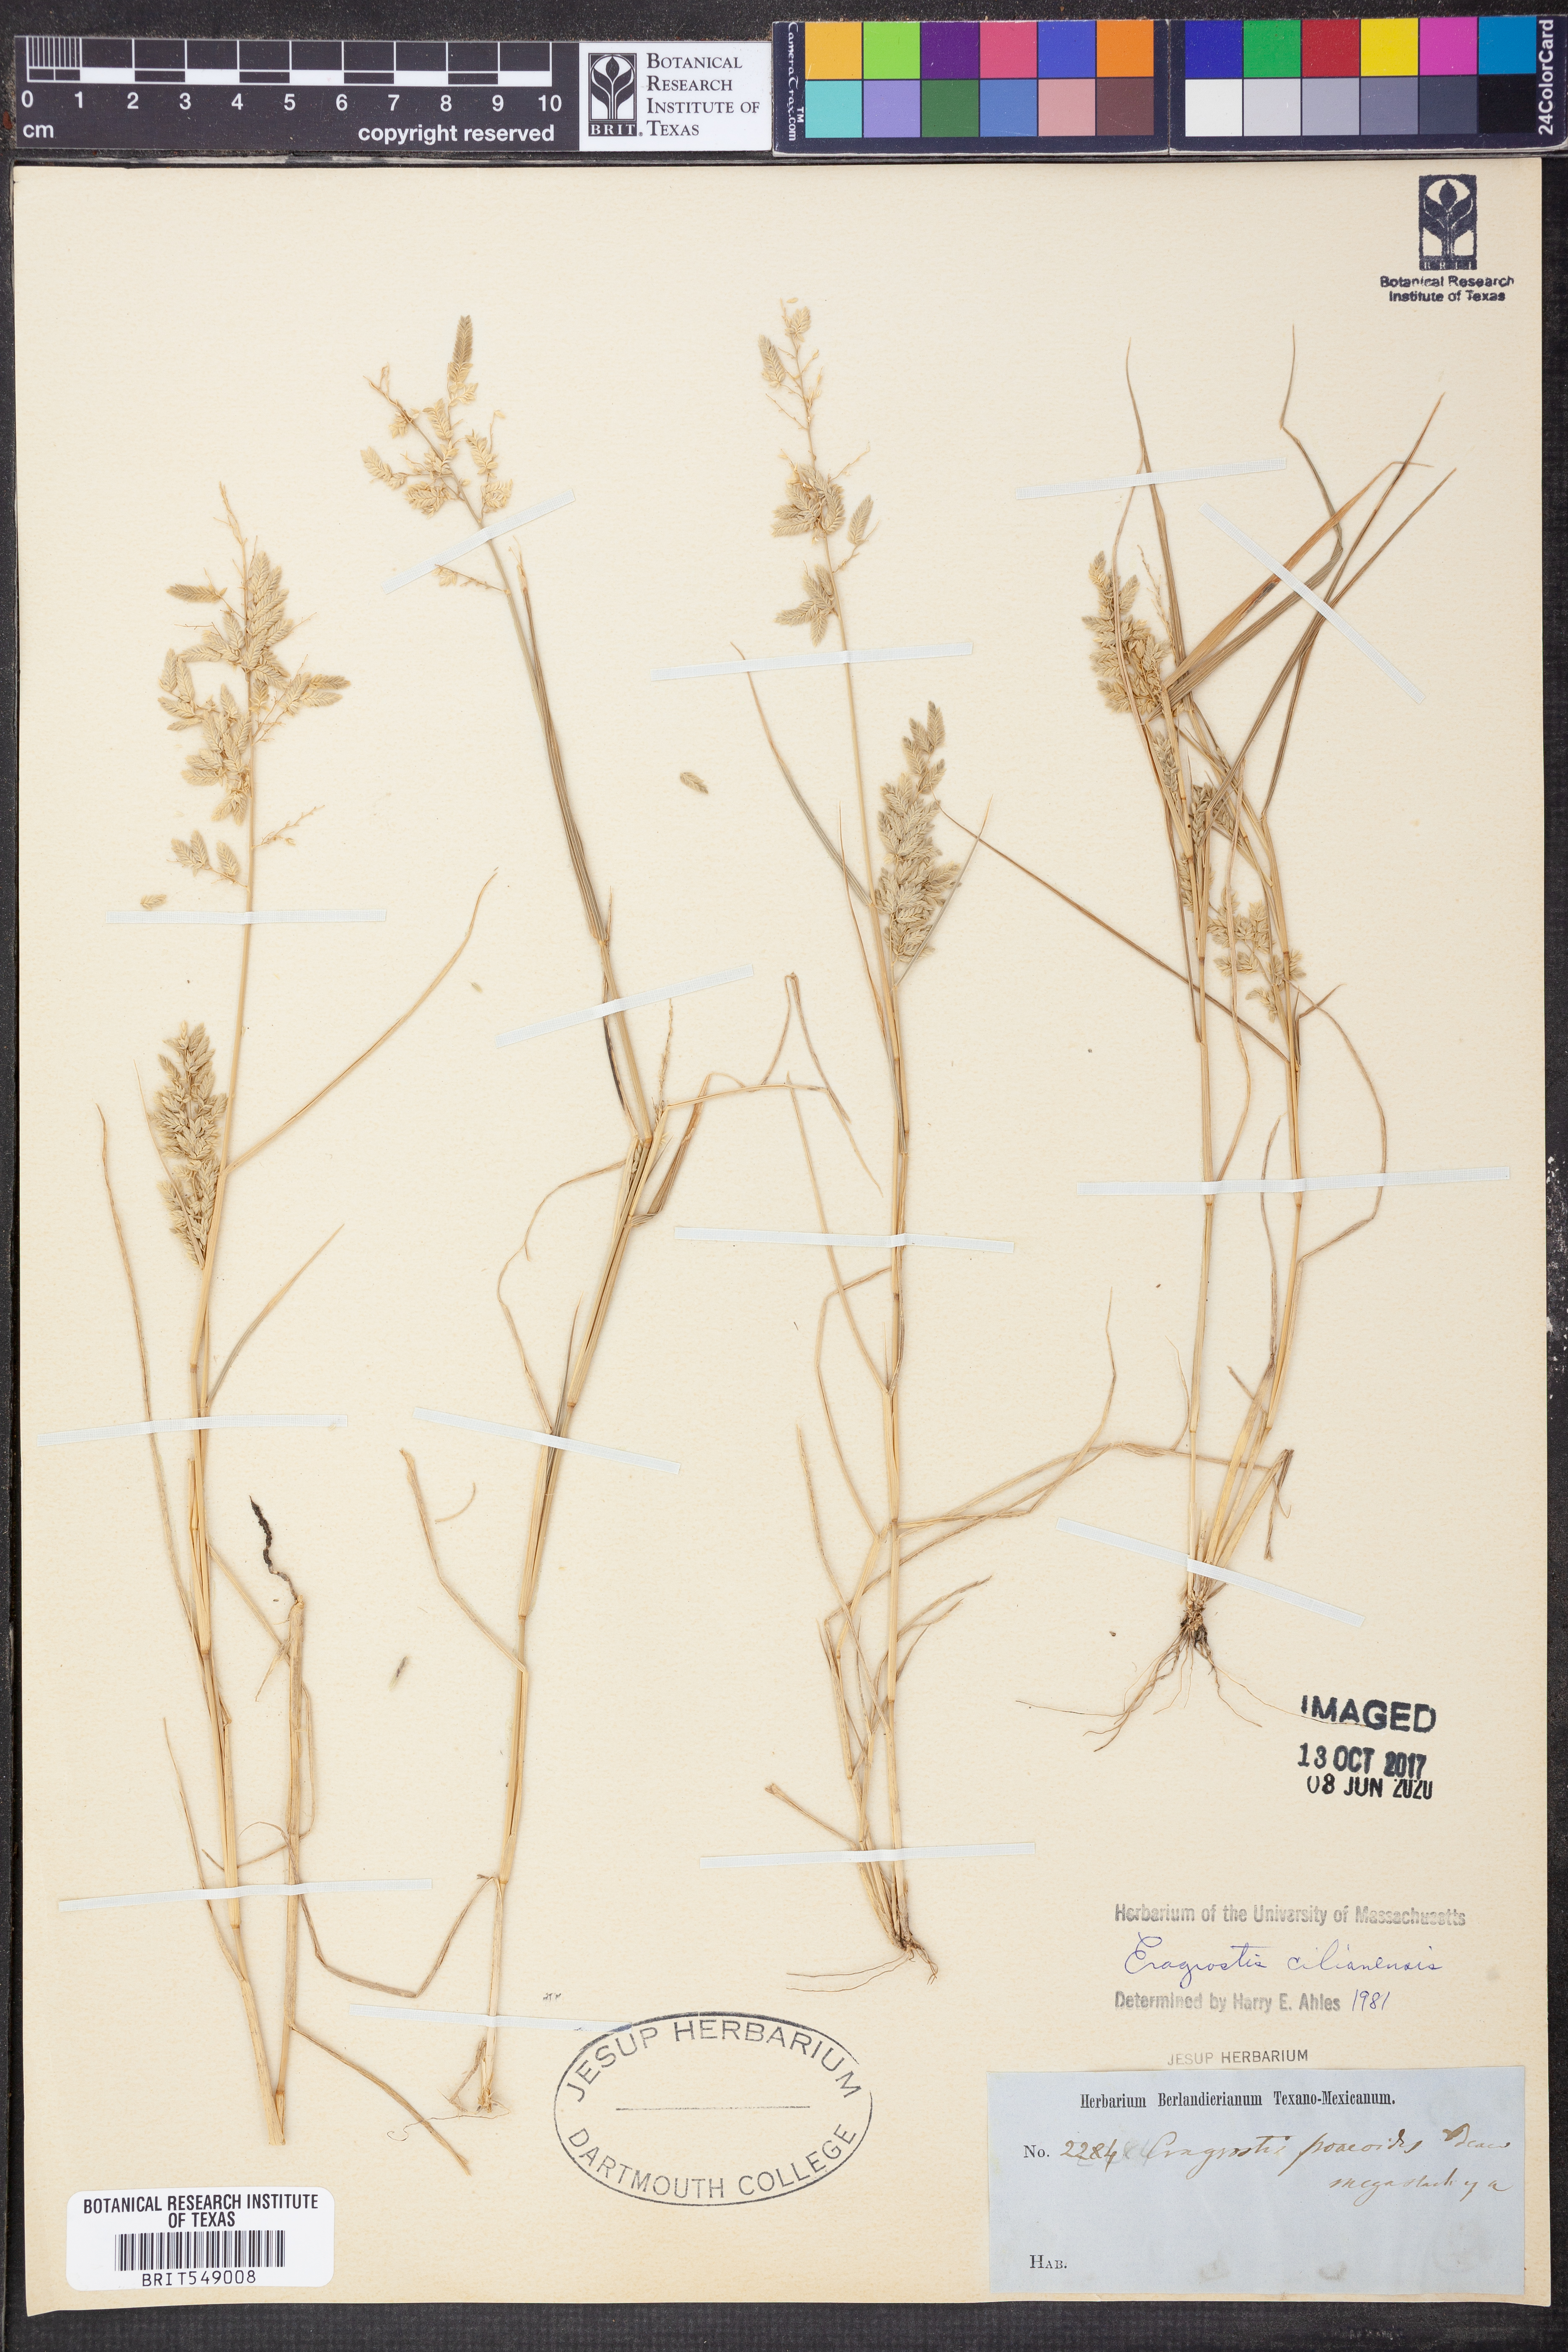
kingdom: Plantae
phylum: Tracheophyta
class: Liliopsida
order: Poales
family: Poaceae
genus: Eragrostis
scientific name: Eragrostis cilianensis
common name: Stinkgrass
